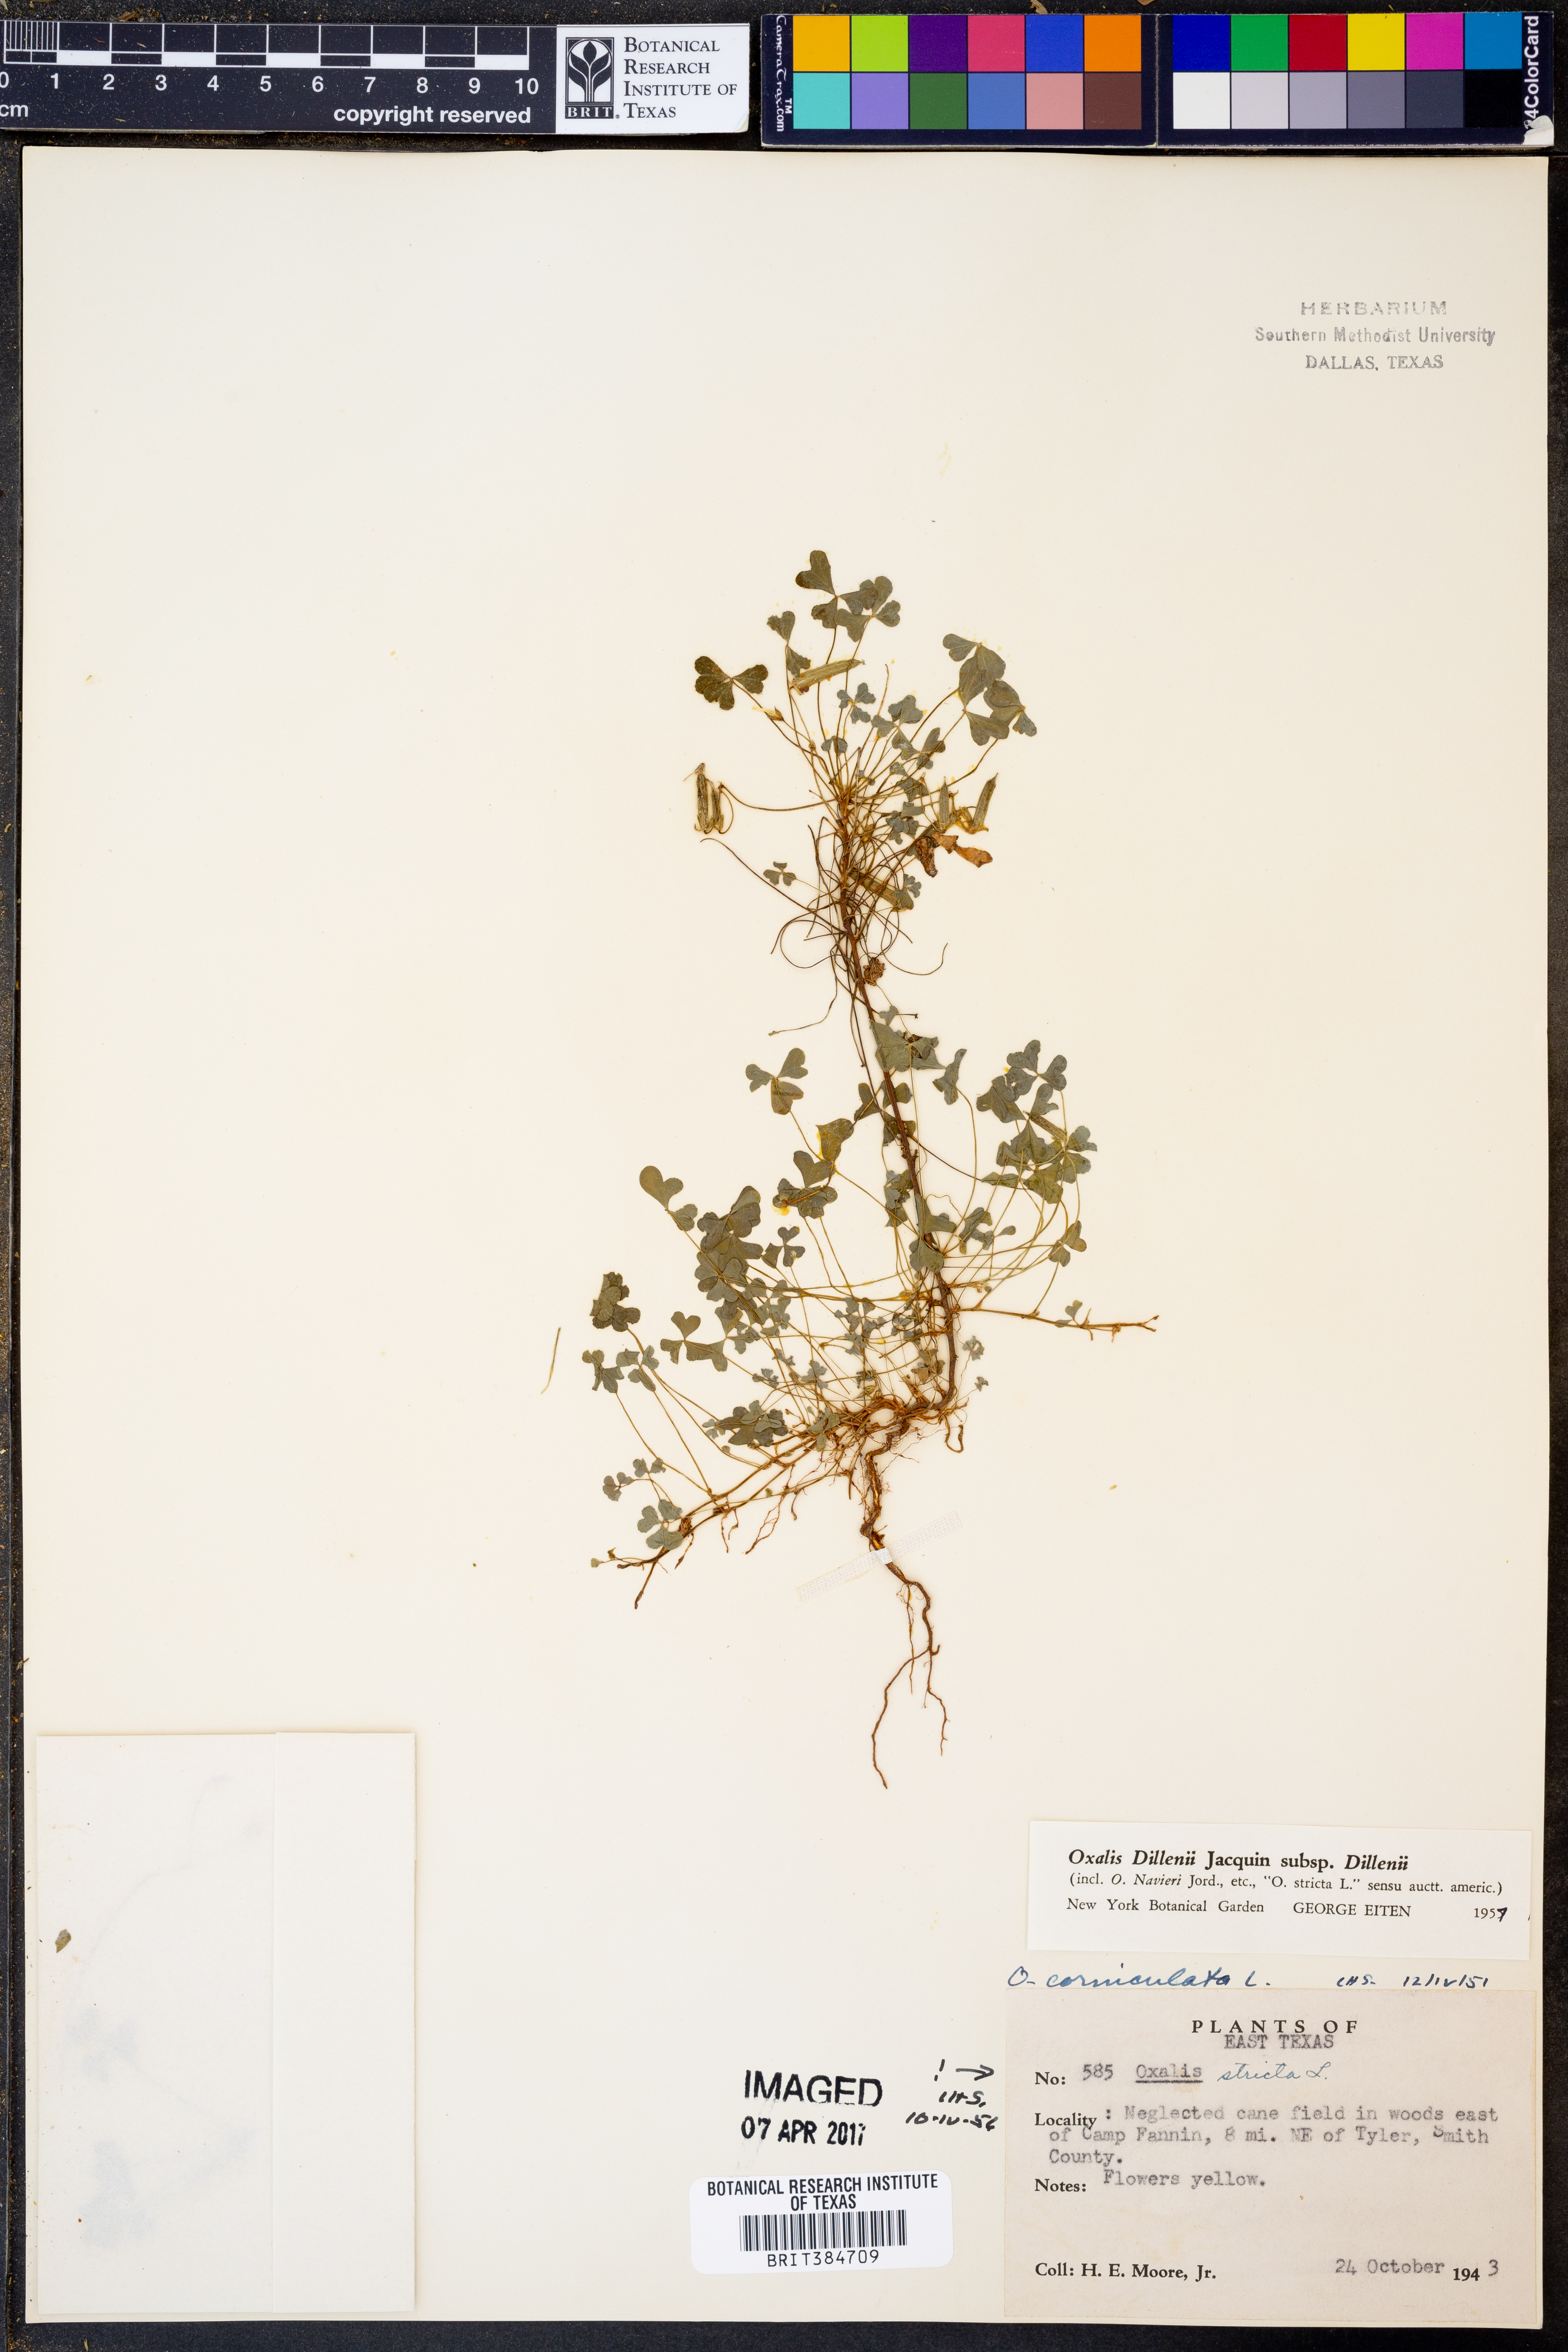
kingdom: Plantae
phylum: Tracheophyta
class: Magnoliopsida
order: Oxalidales
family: Oxalidaceae
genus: Oxalis
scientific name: Oxalis dillenii
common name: Sussex yellow-sorrel
